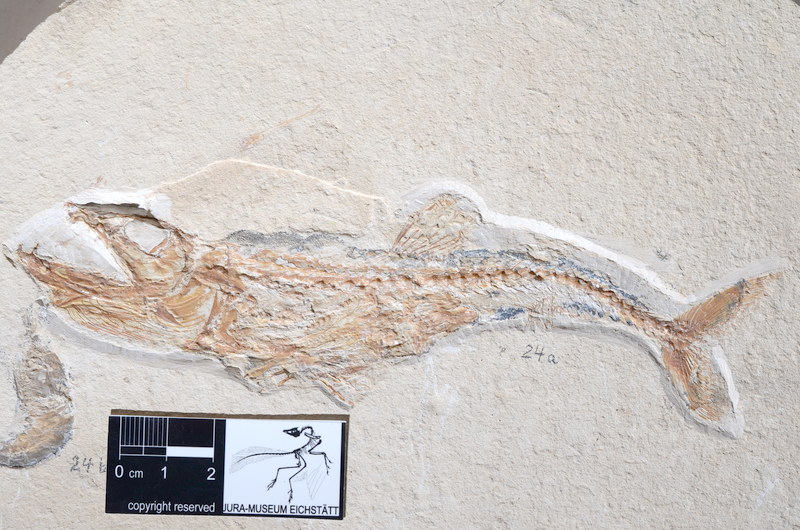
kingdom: Animalia
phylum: Chordata
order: Salmoniformes
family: Eurypholidae
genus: Eurypholis
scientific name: Eurypholis boissieri
